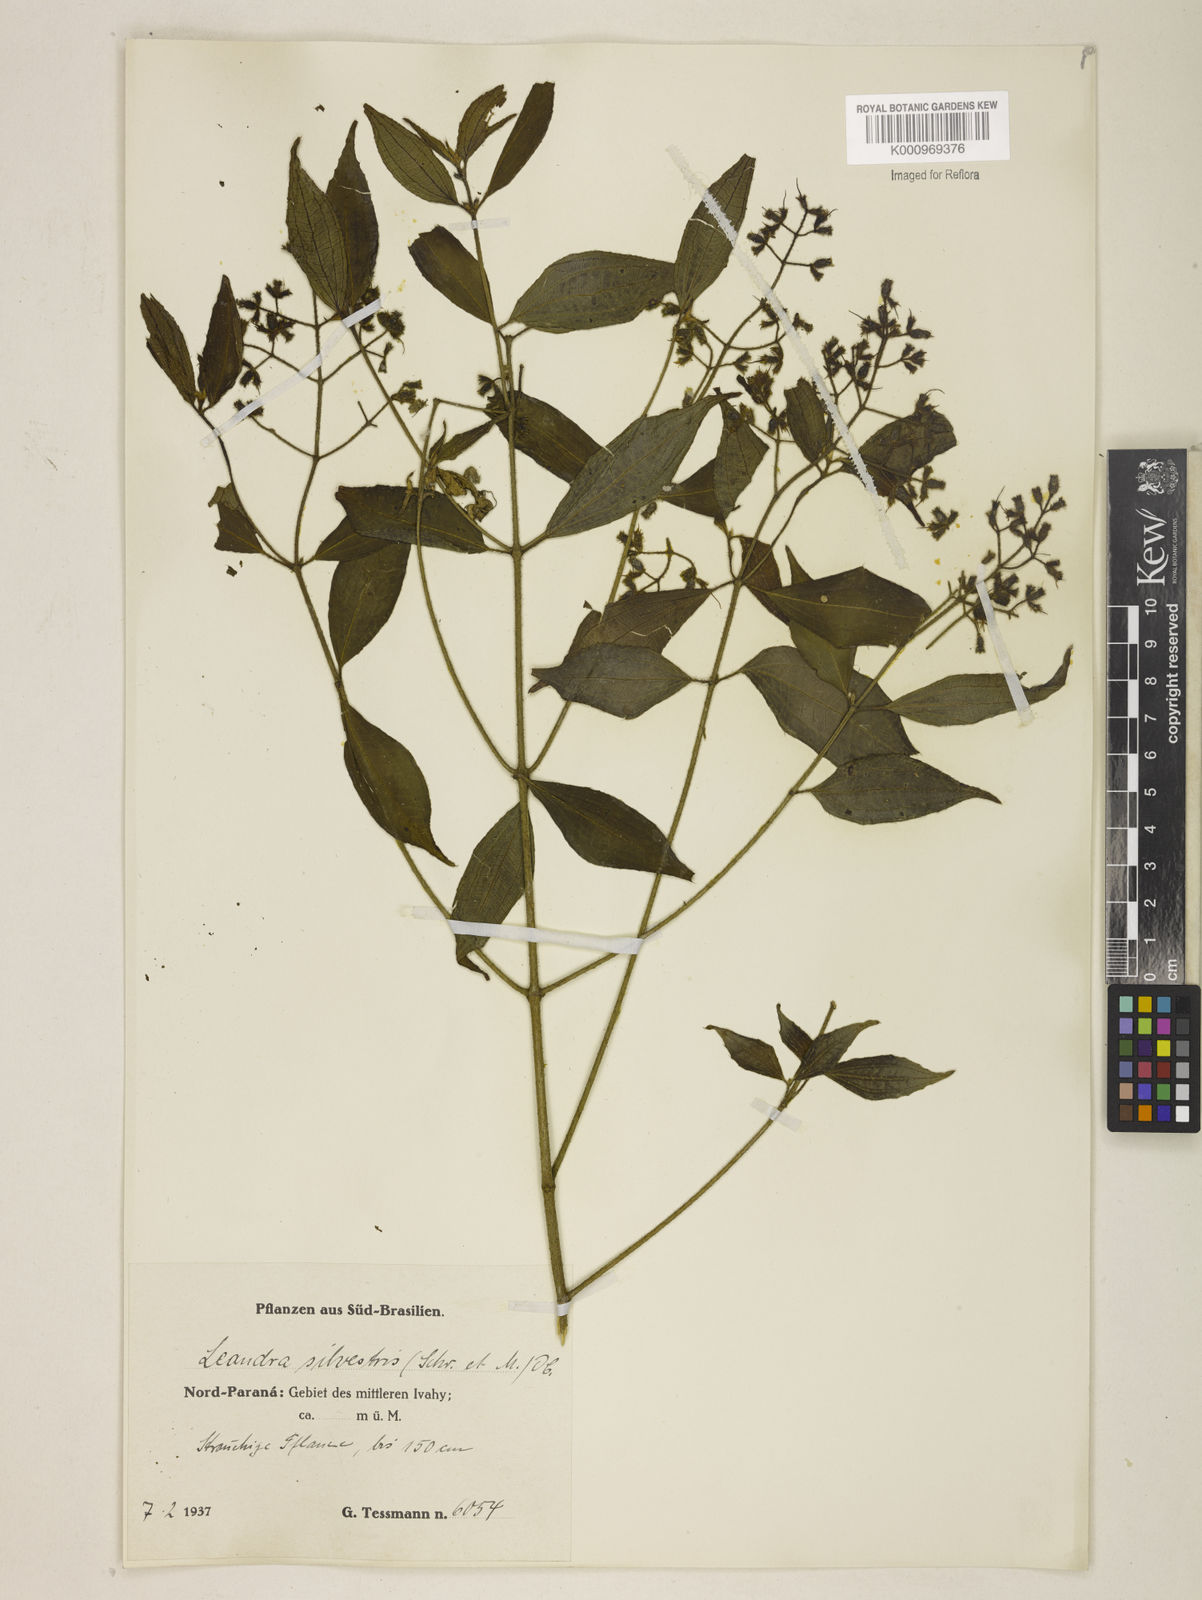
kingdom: Plantae
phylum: Tracheophyta
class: Magnoliopsida
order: Myrtales
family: Melastomataceae
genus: Miconia
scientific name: Miconia dubia
